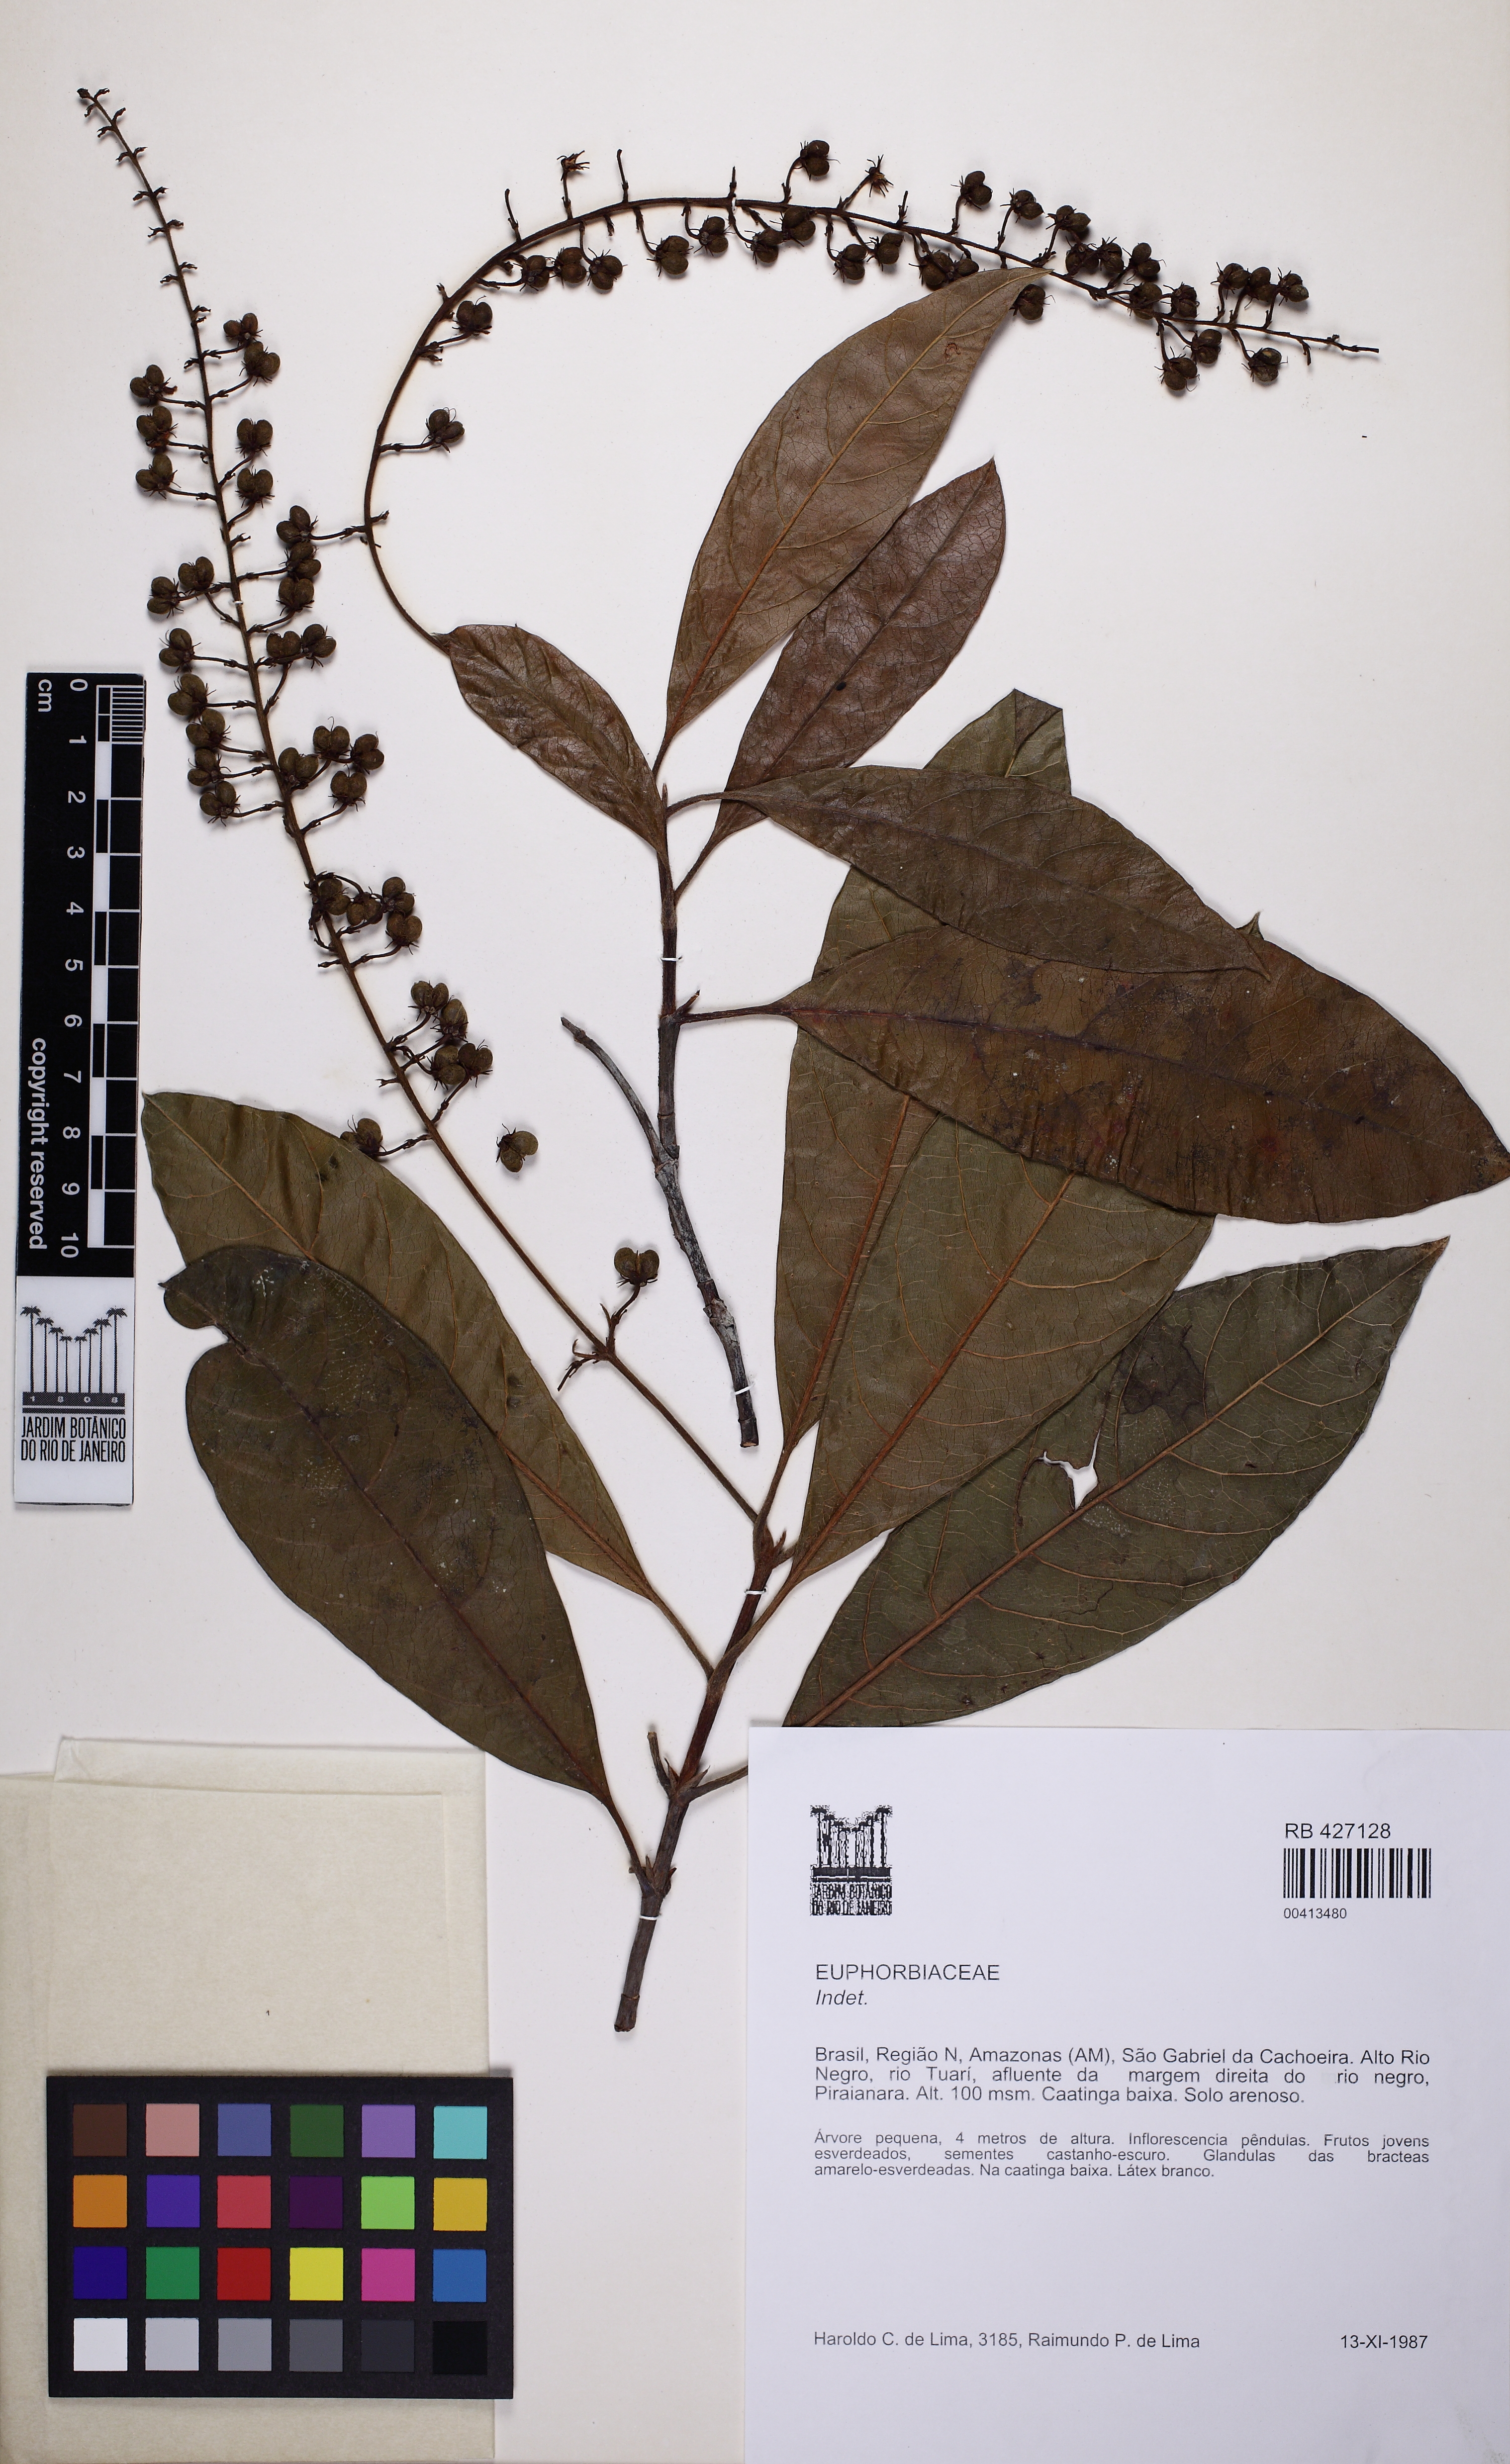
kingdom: Plantae
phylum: Tracheophyta
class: Magnoliopsida
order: Malpighiales
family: Euphorbiaceae
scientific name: Euphorbiaceae
